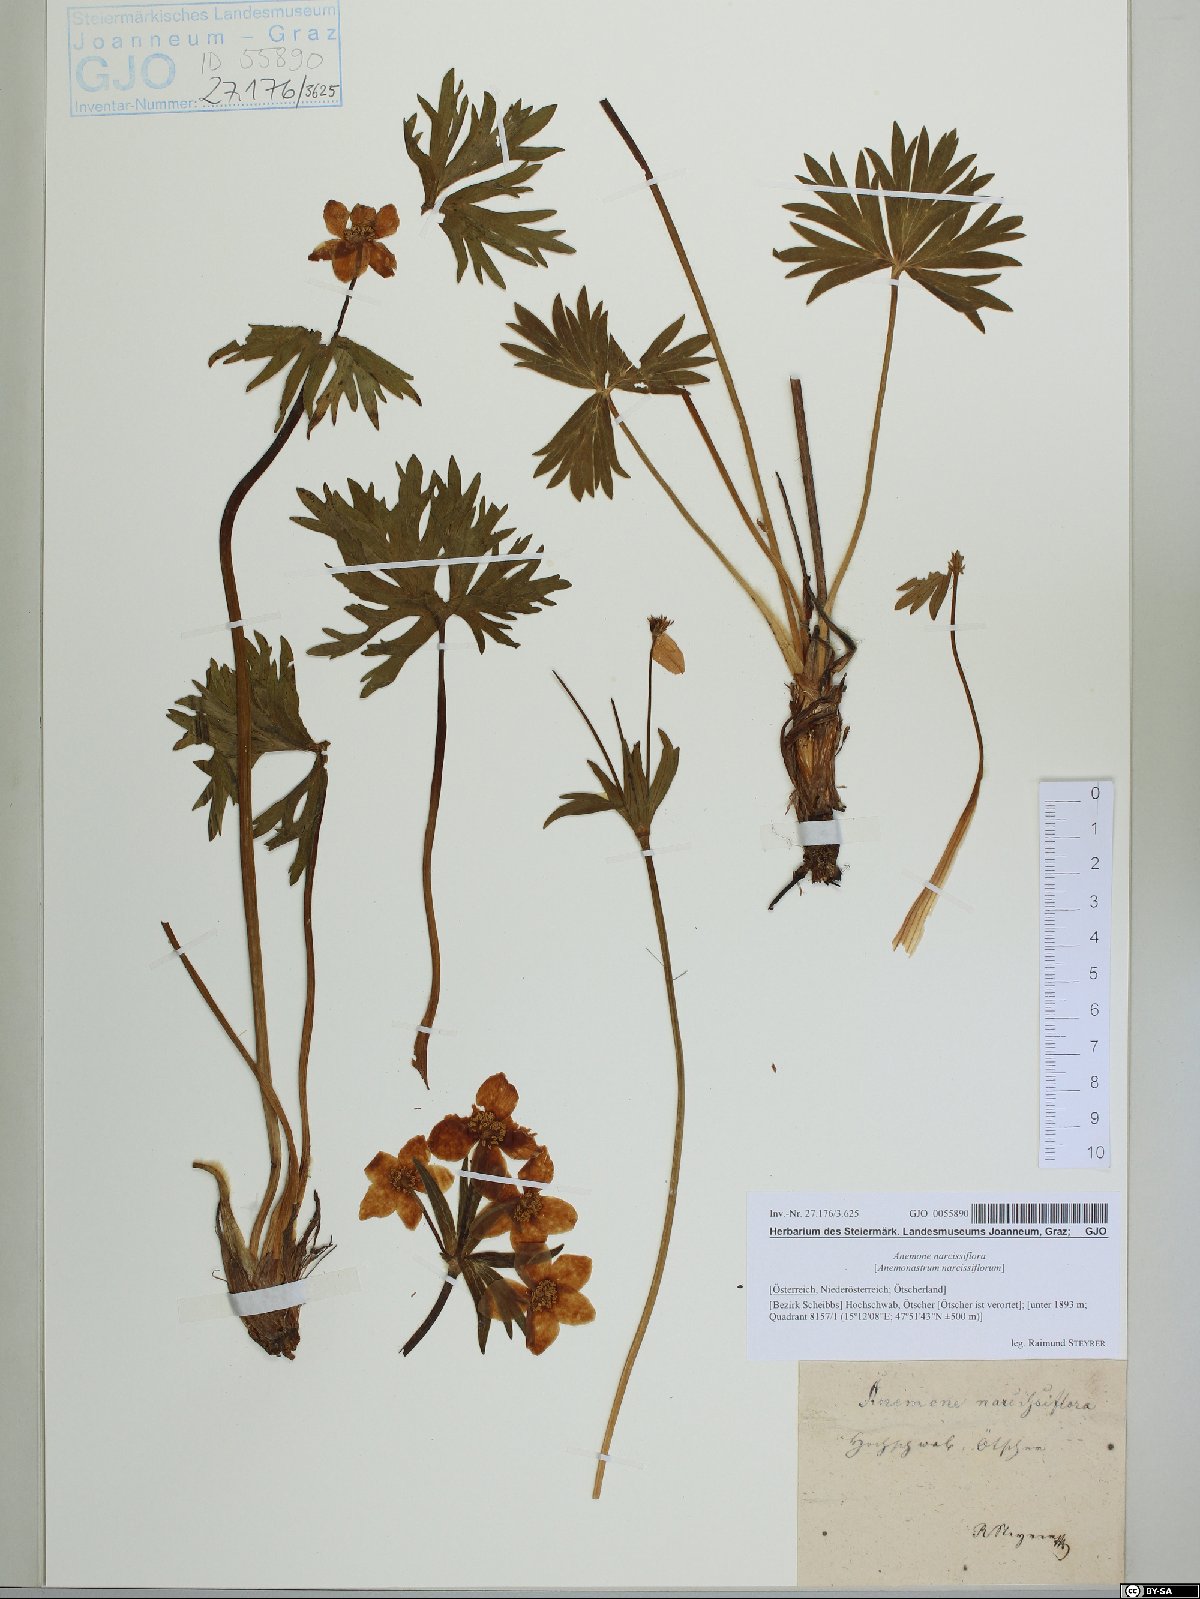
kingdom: Plantae
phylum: Tracheophyta
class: Magnoliopsida
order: Ranunculales
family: Ranunculaceae
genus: Anemonastrum
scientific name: Anemonastrum narcissiflorum
